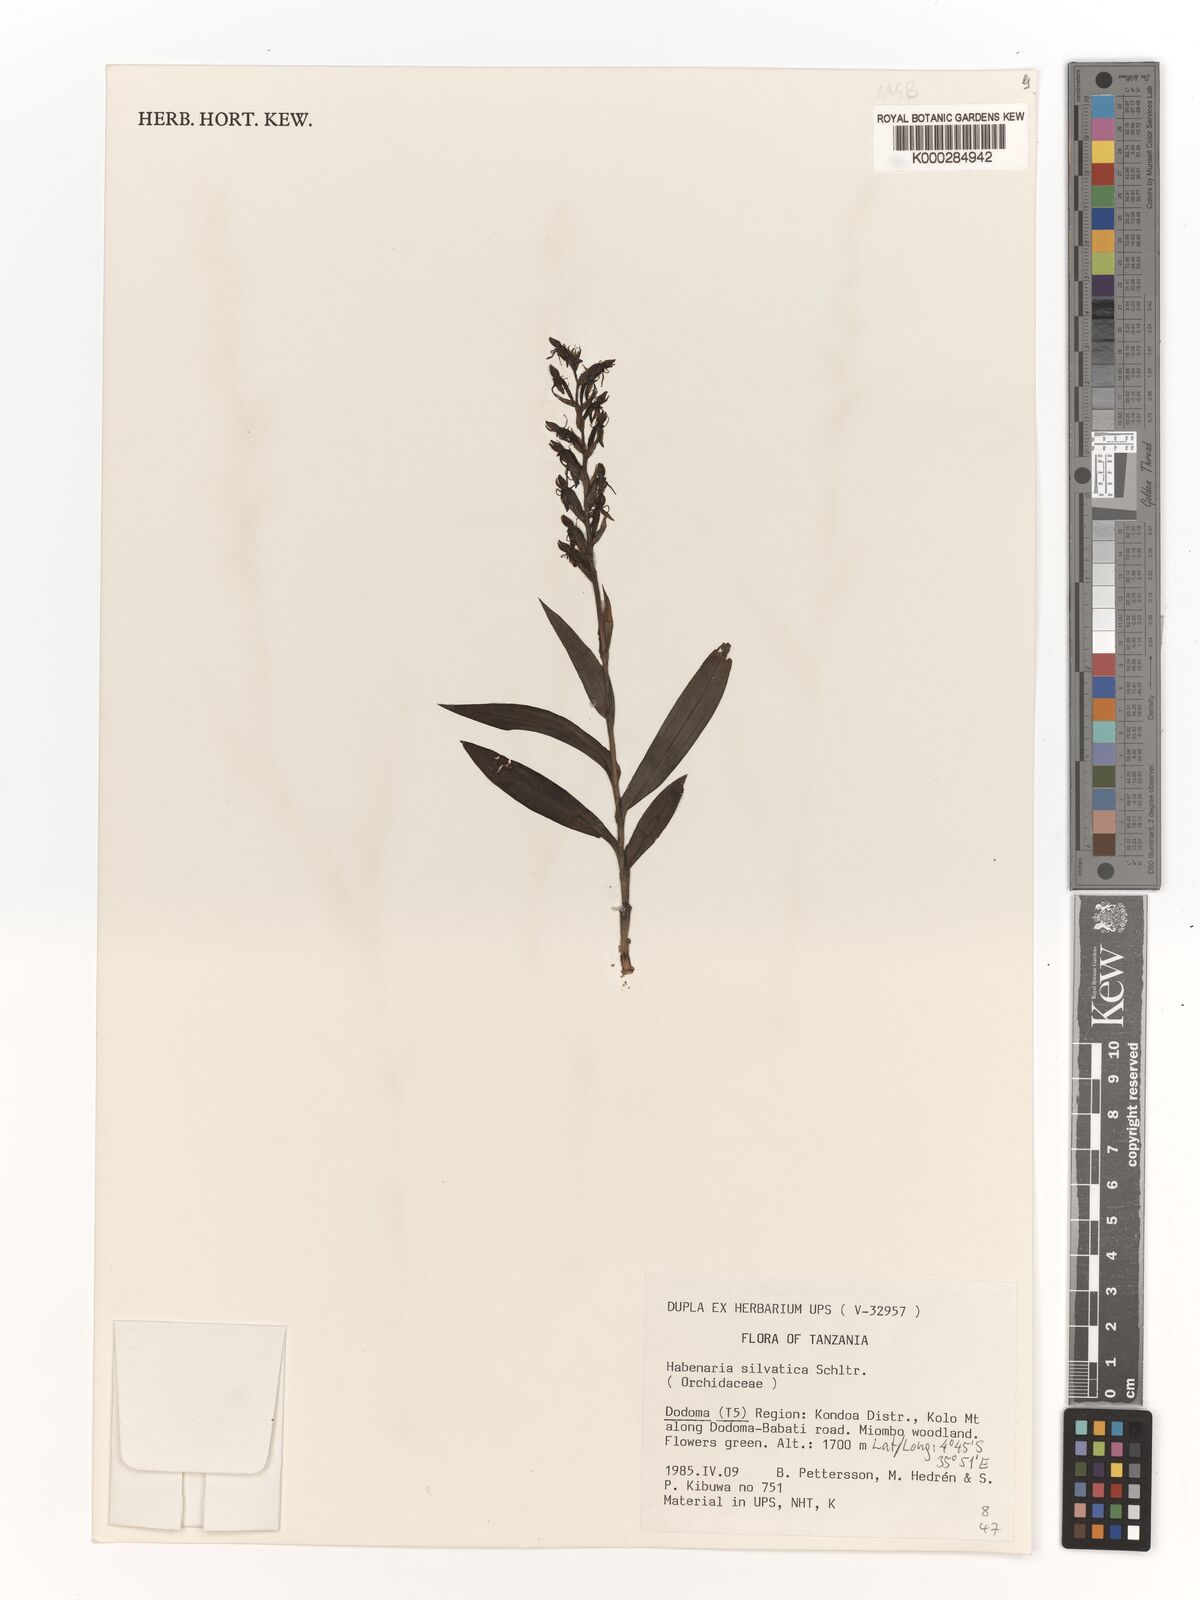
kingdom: Plantae
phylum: Tracheophyta
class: Liliopsida
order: Asparagales
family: Orchidaceae
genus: Habenaria
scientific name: Habenaria silvatica
